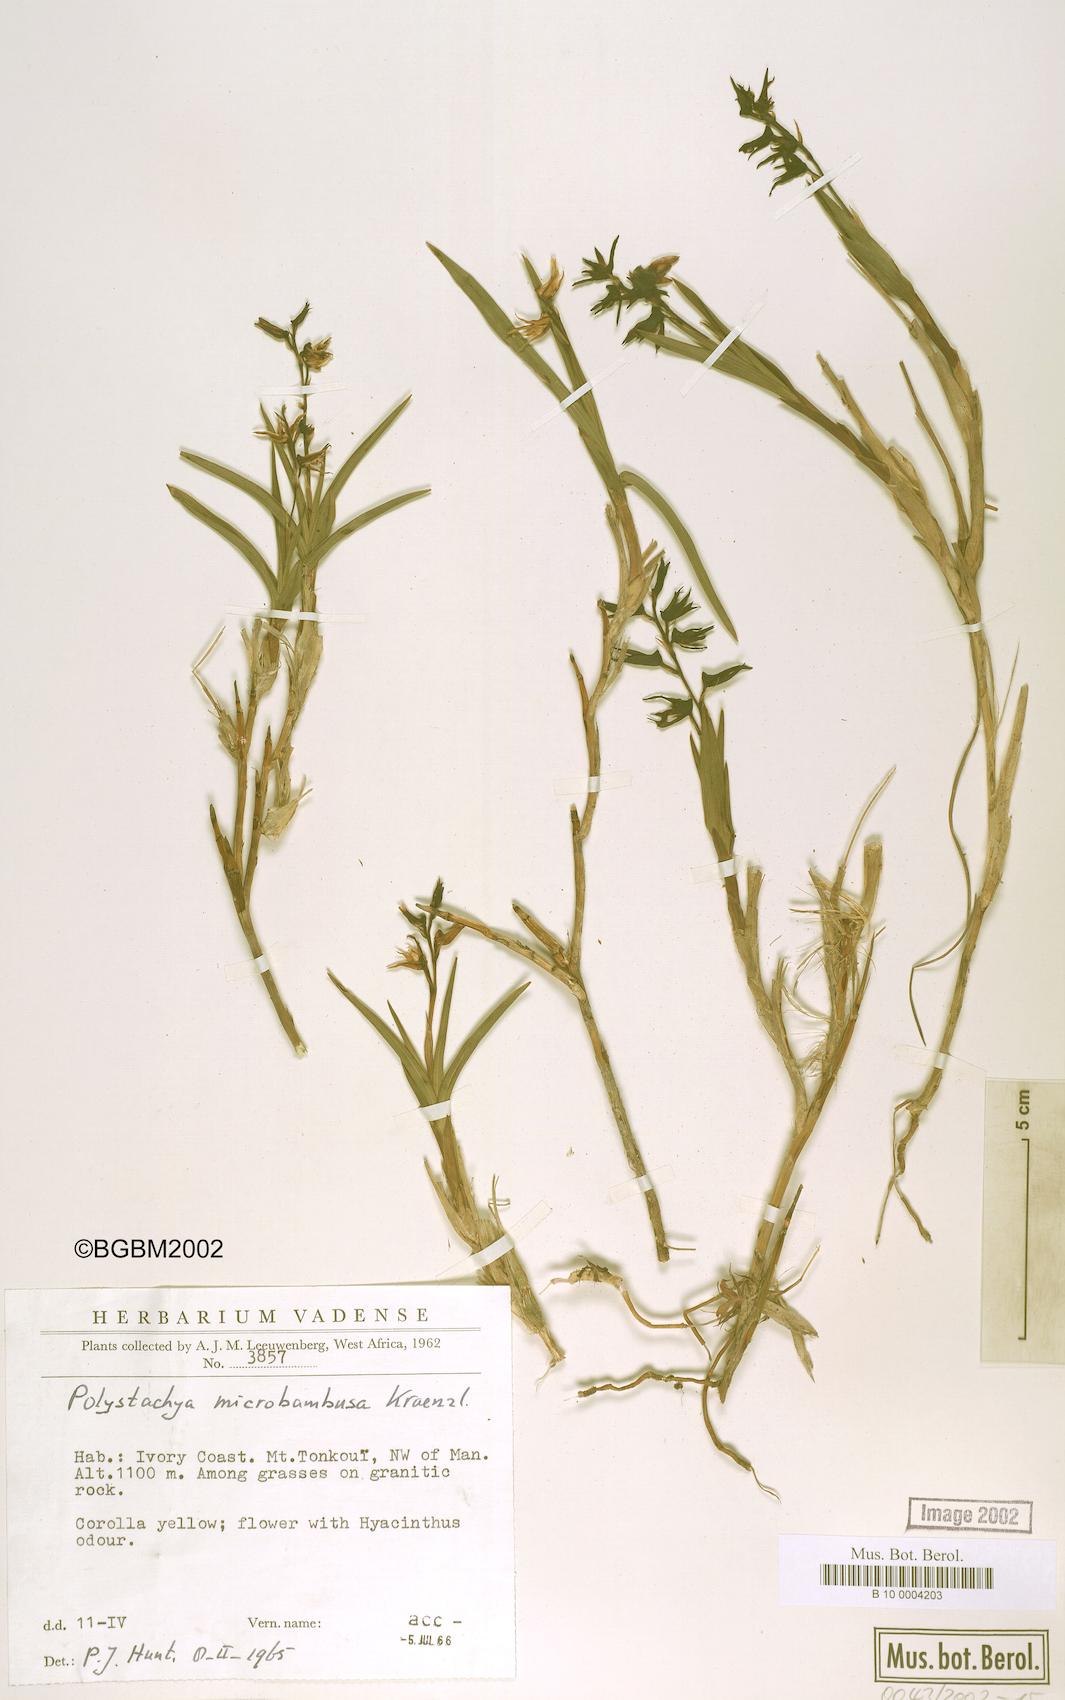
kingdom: Plantae
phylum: Tracheophyta
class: Liliopsida
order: Asparagales
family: Orchidaceae
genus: Polystachya
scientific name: Polystachya microbambusa
